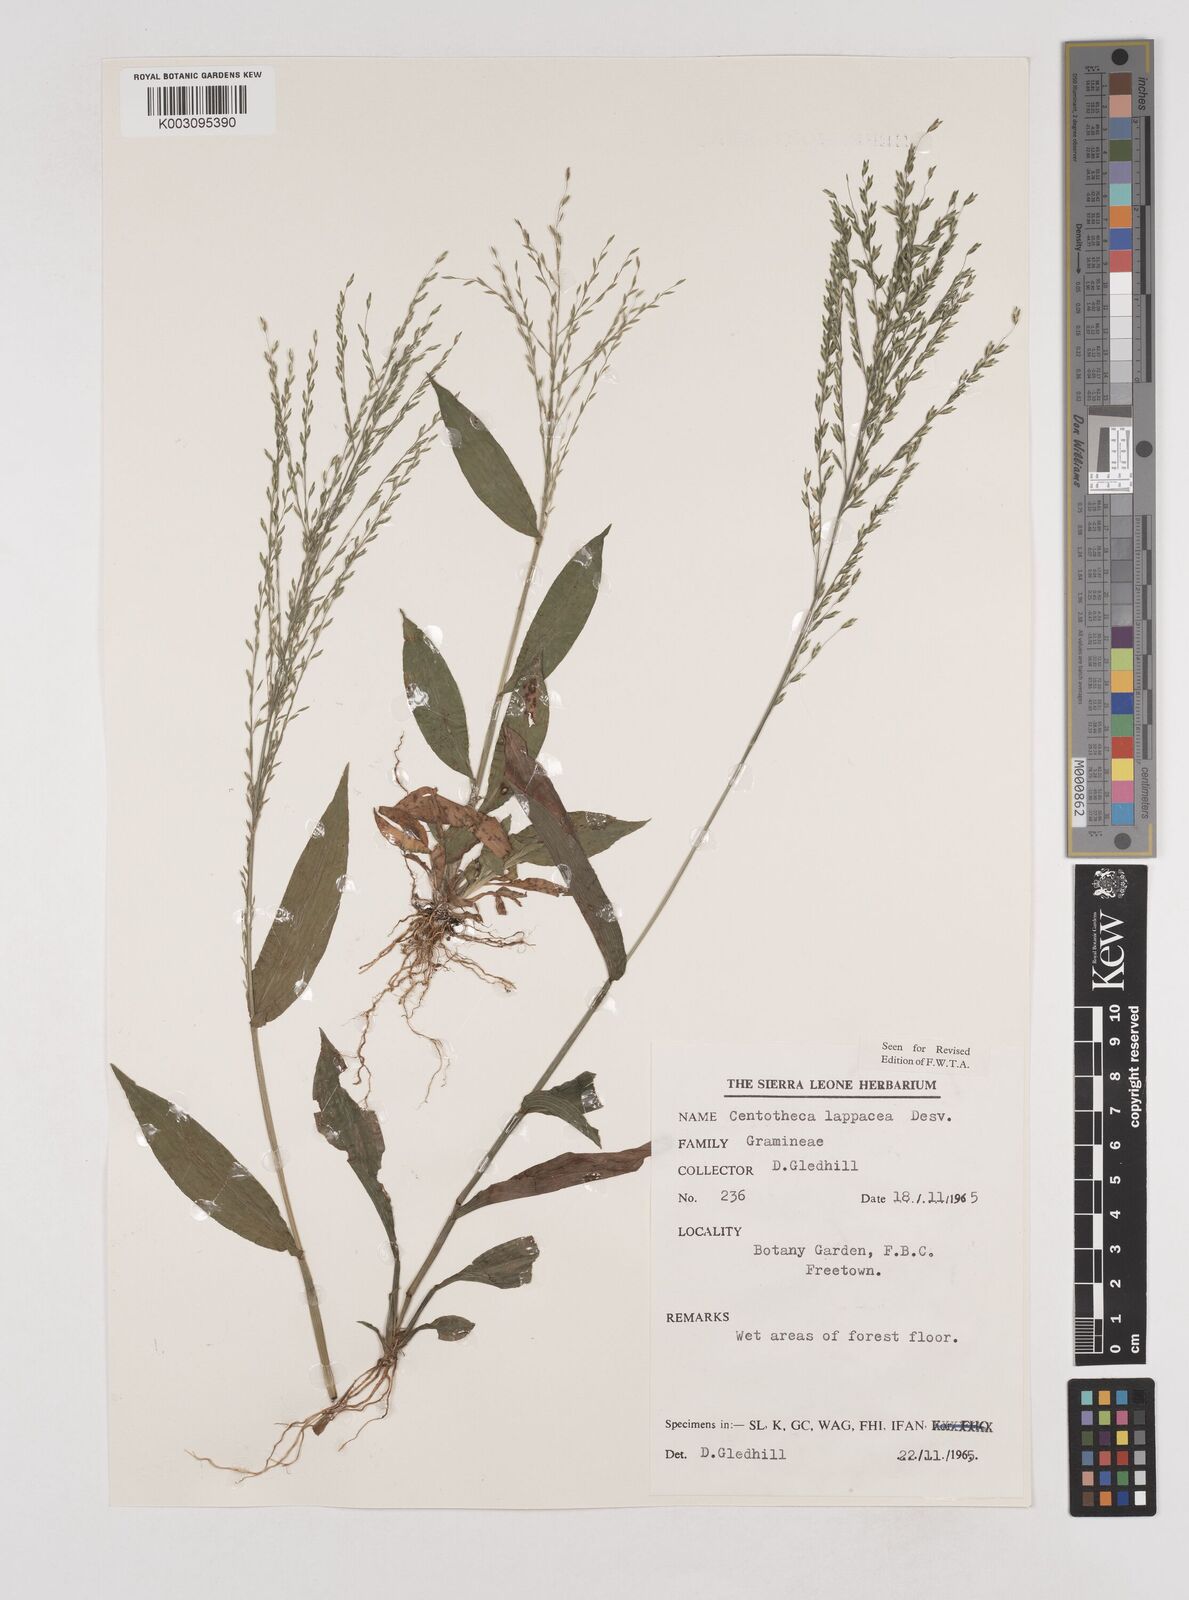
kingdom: Plantae
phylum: Tracheophyta
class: Liliopsida
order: Poales
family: Poaceae
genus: Centotheca
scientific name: Centotheca lappacea
